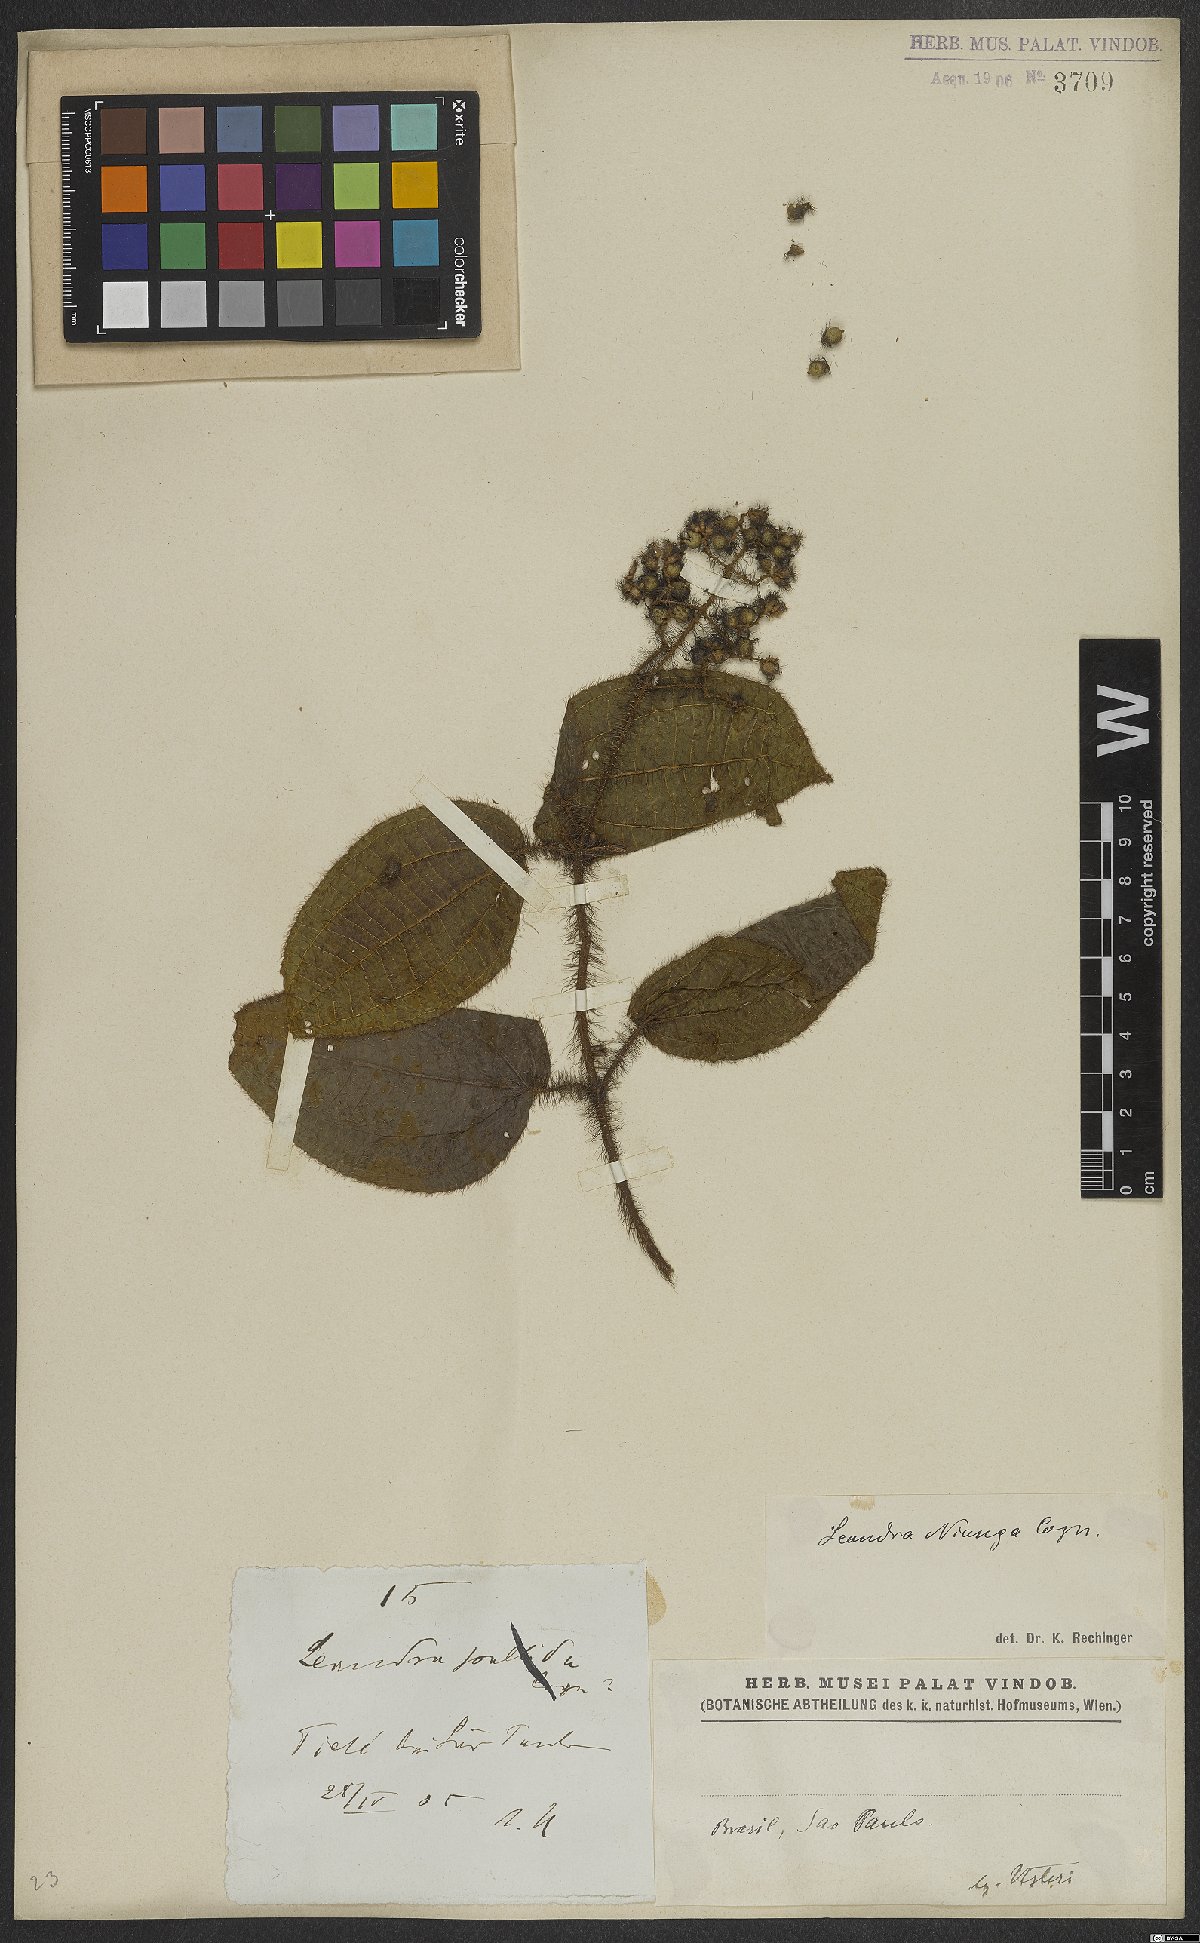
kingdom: Plantae
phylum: Tracheophyta
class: Magnoliopsida
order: Myrtales
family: Melastomataceae
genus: Miconia
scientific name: Miconia nianga
